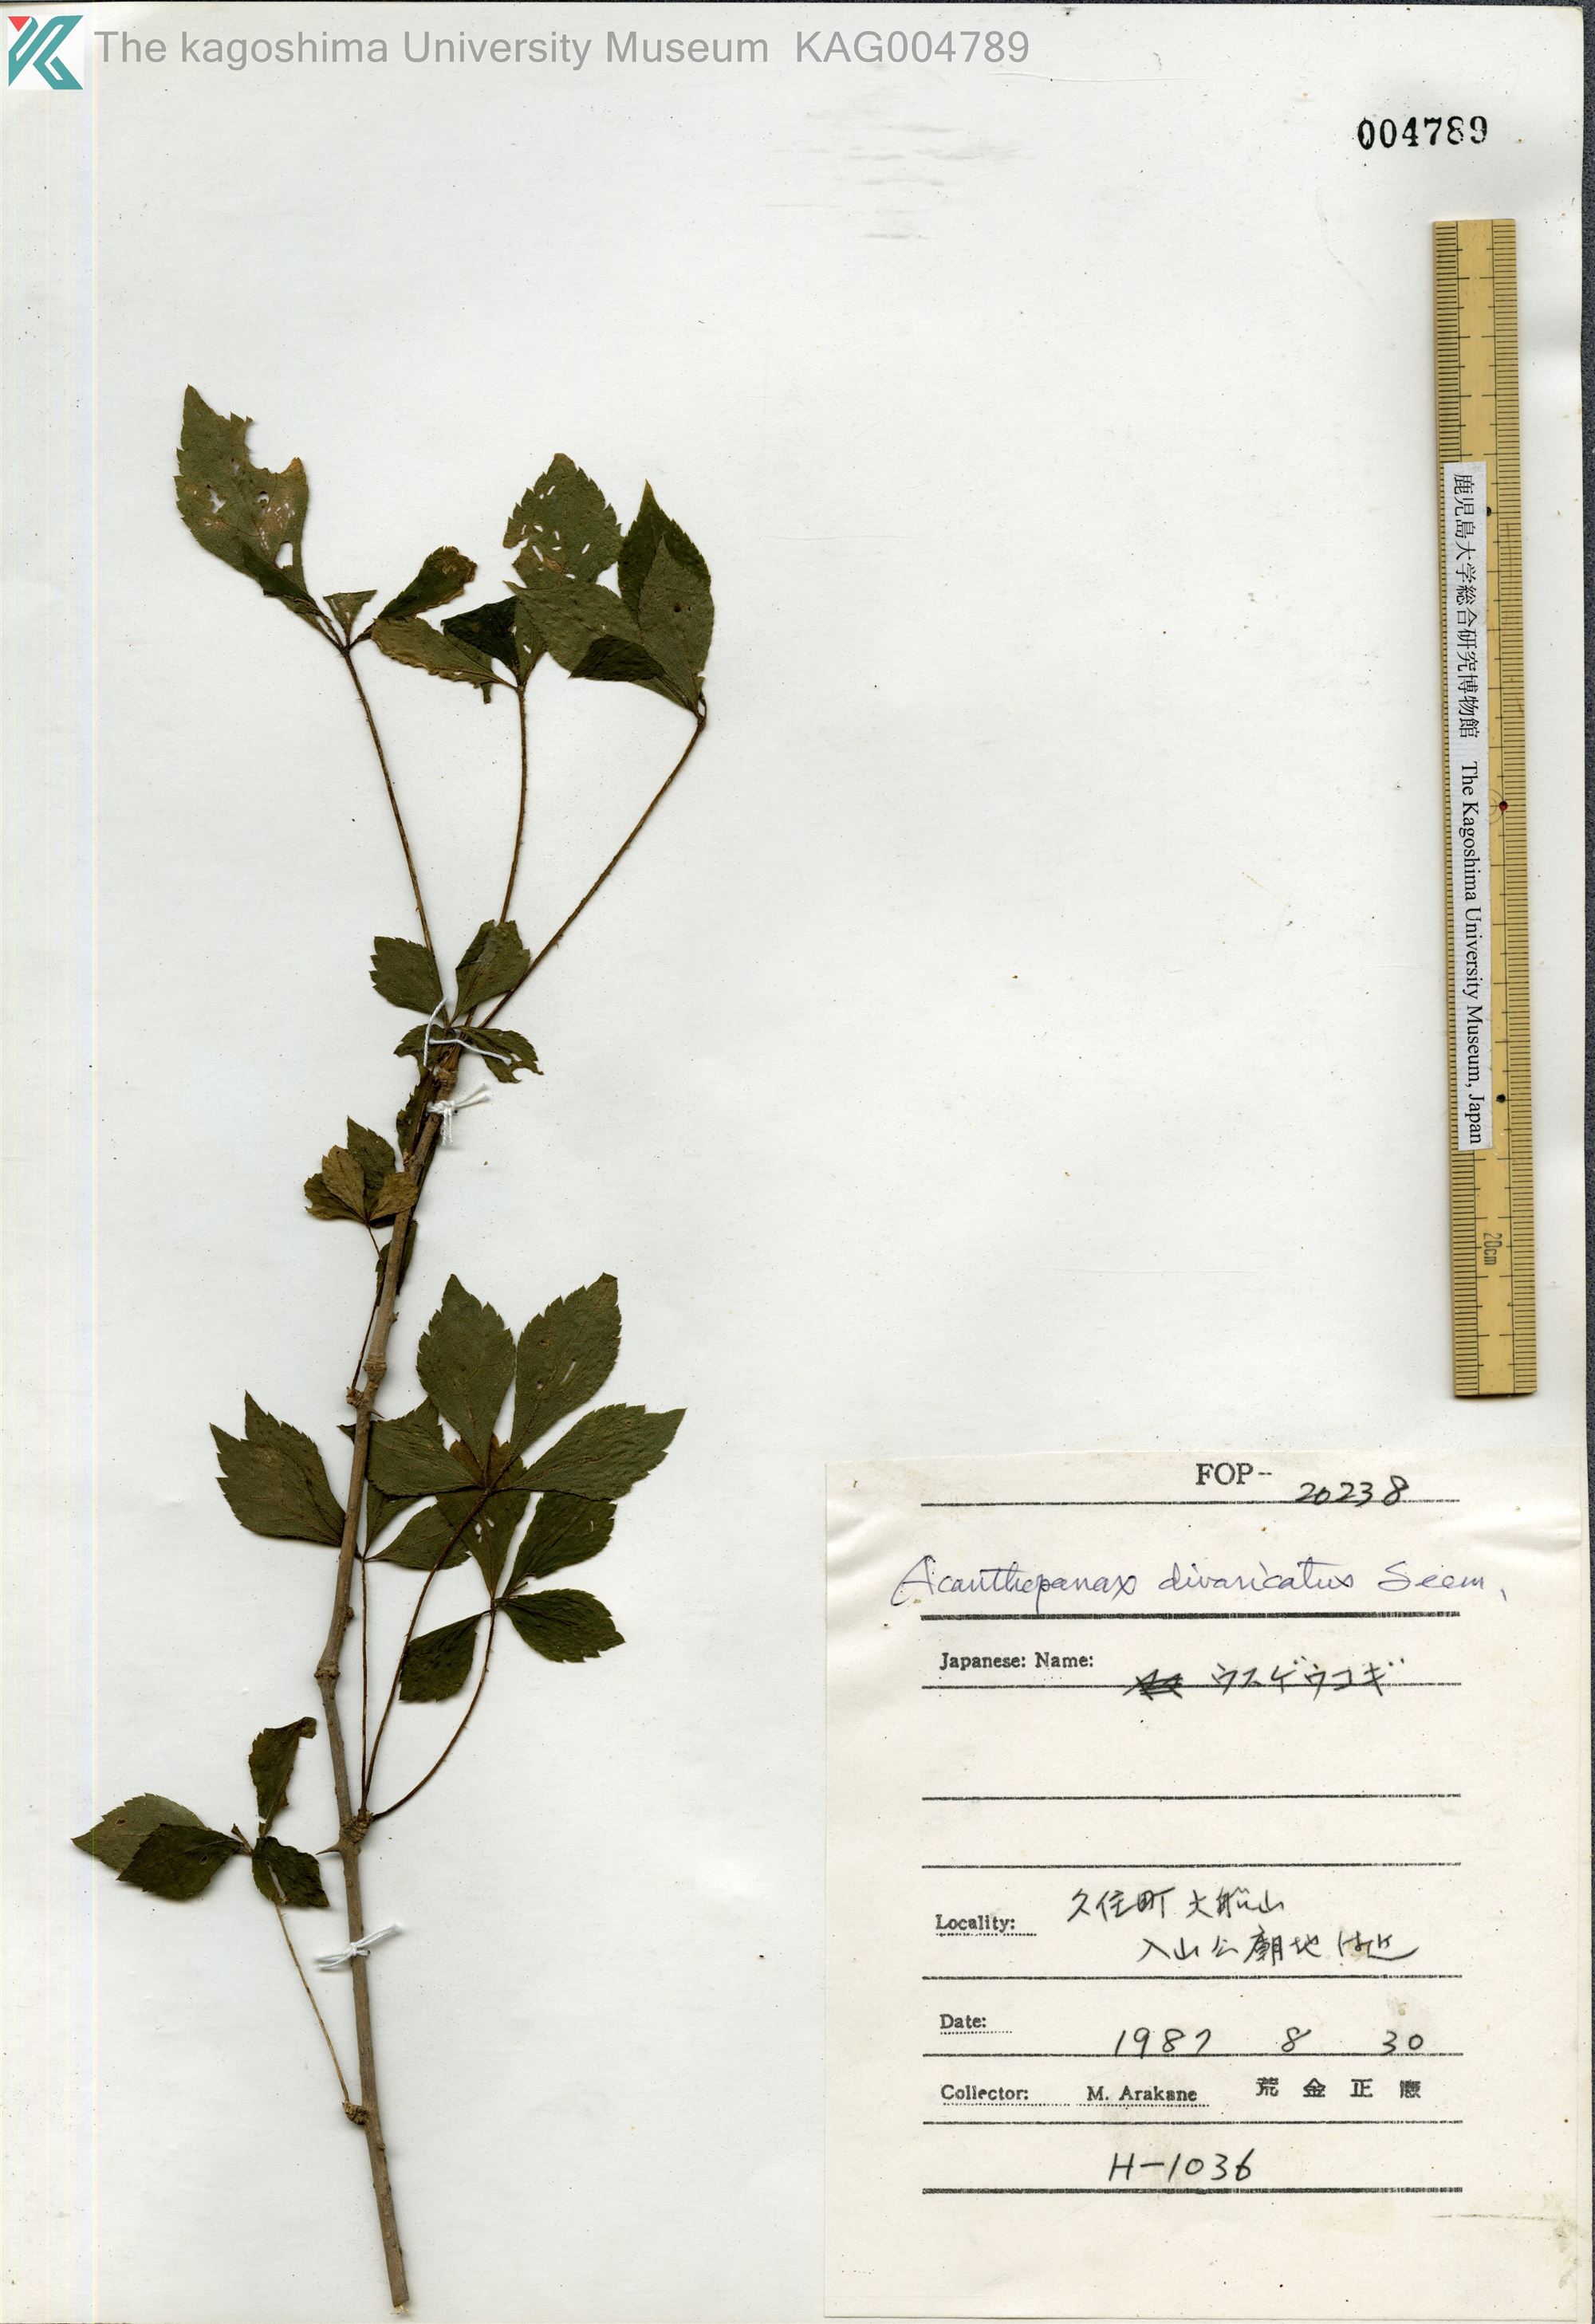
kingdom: Plantae
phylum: Tracheophyta
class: Magnoliopsida
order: Apiales
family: Araliaceae
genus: Eleutherococcus
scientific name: Eleutherococcus nikaianus
